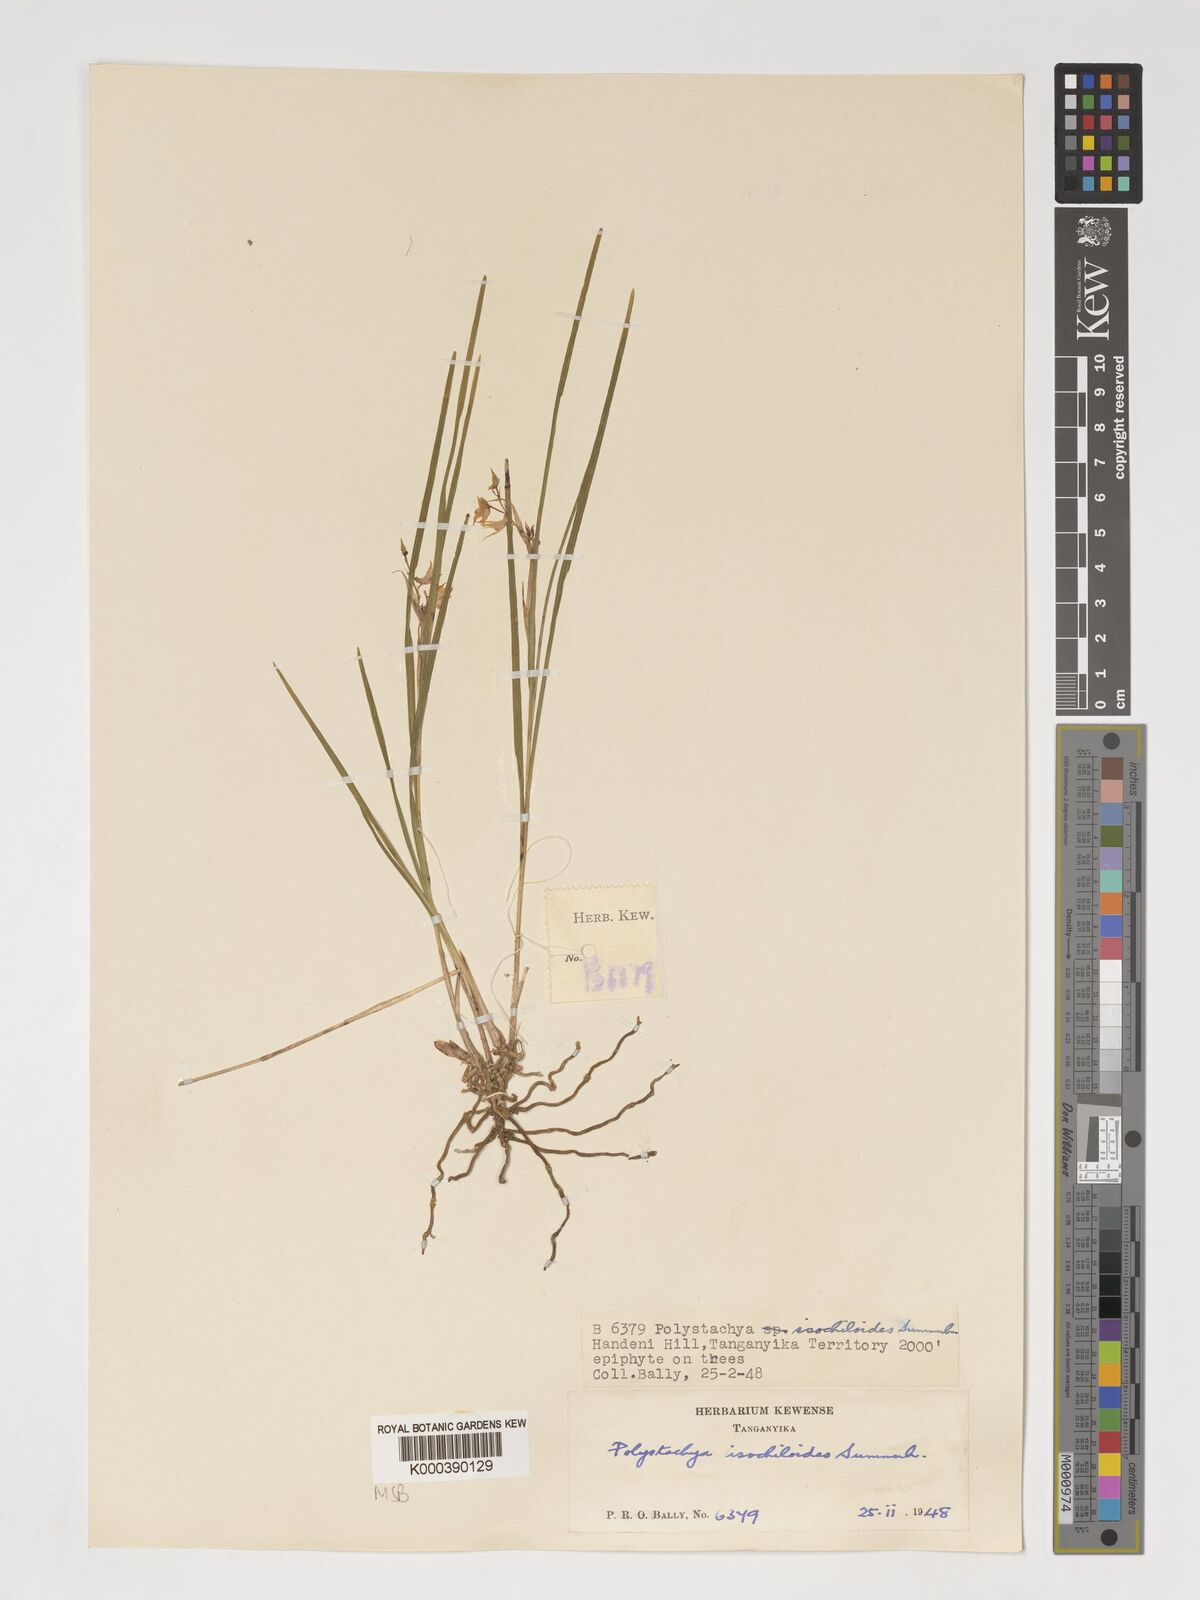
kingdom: Plantae
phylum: Tracheophyta
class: Liliopsida
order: Asparagales
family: Orchidaceae
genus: Polystachya
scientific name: Polystachya isochiloides
